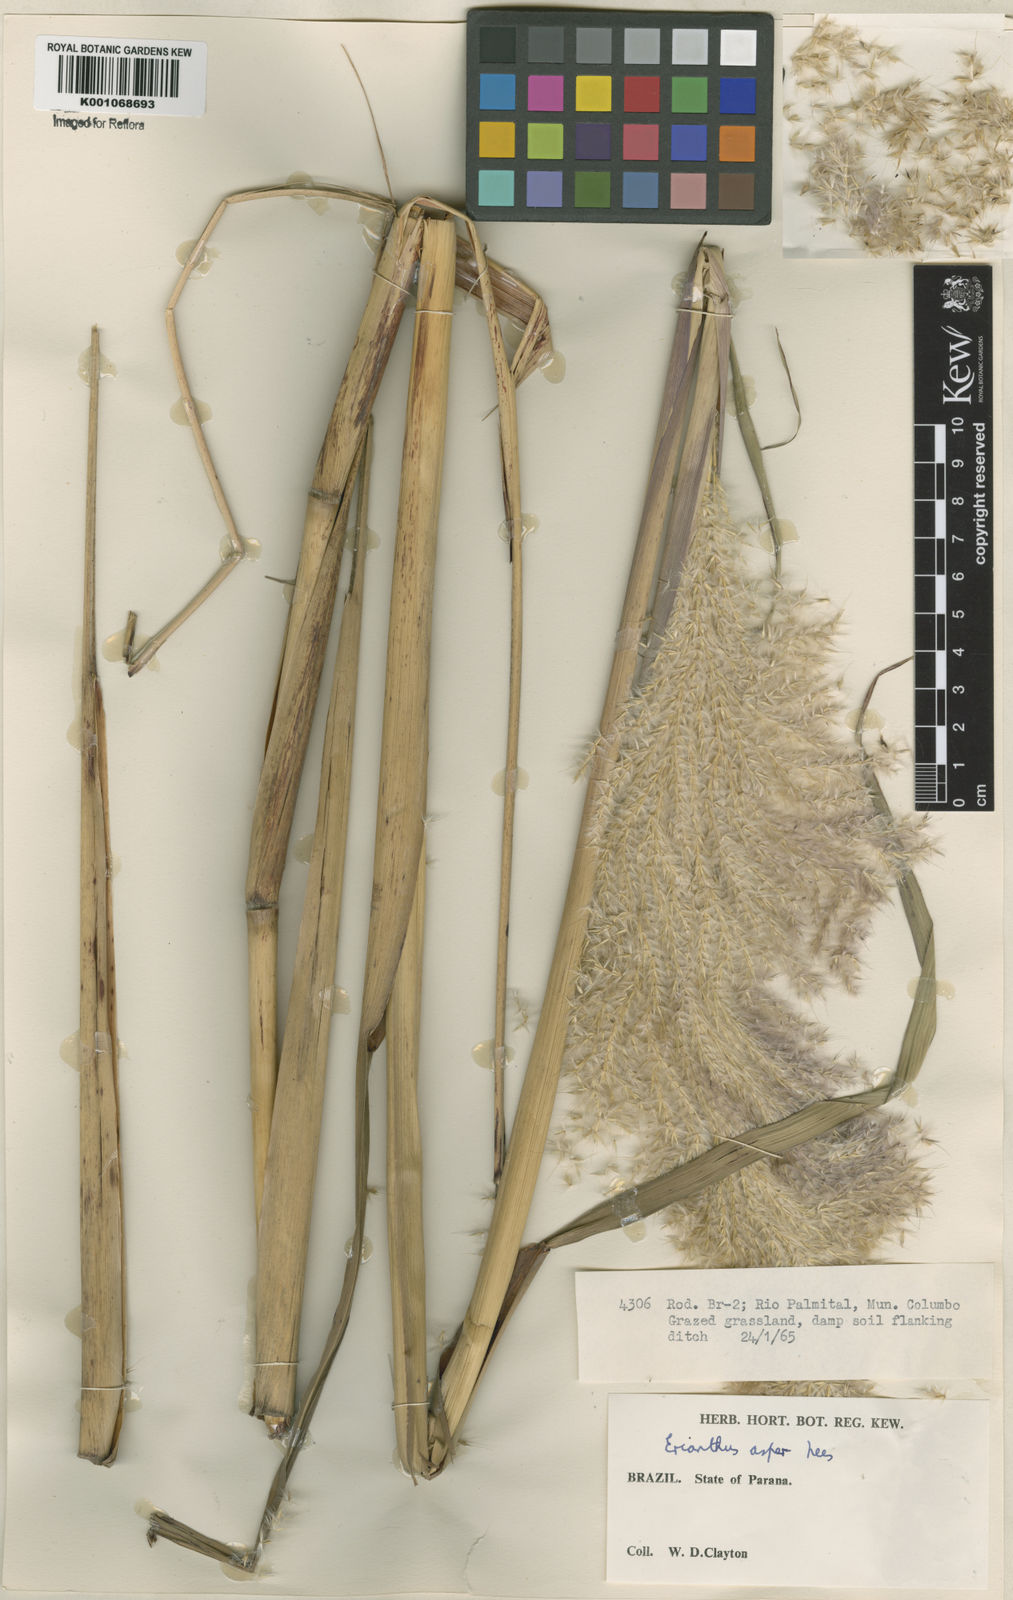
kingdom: Plantae
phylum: Tracheophyta
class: Liliopsida
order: Poales
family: Poaceae
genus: Erianthus
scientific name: Erianthus asper
